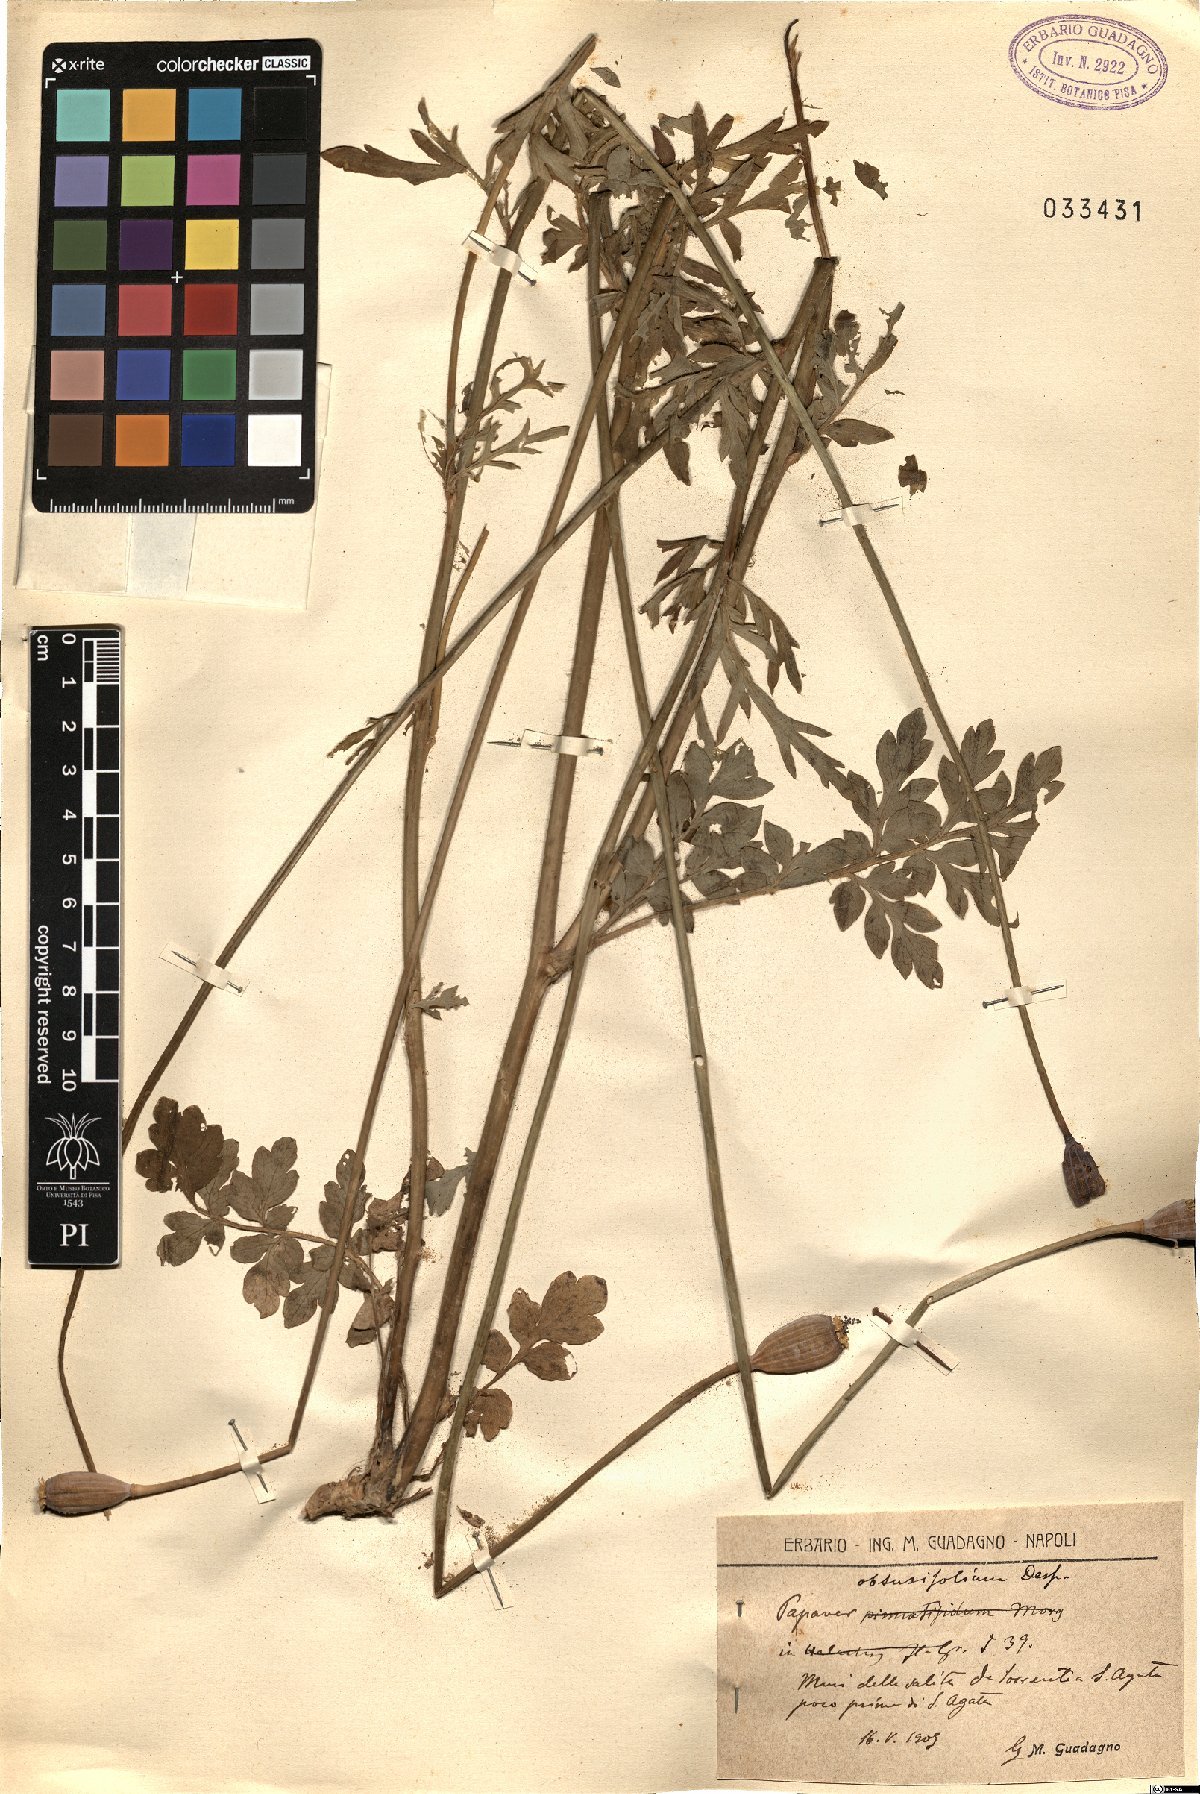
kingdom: Plantae
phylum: Tracheophyta
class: Magnoliopsida
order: Ranunculales
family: Papaveraceae
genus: Papaver
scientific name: Papaver dubium
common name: Long-headed poppy
